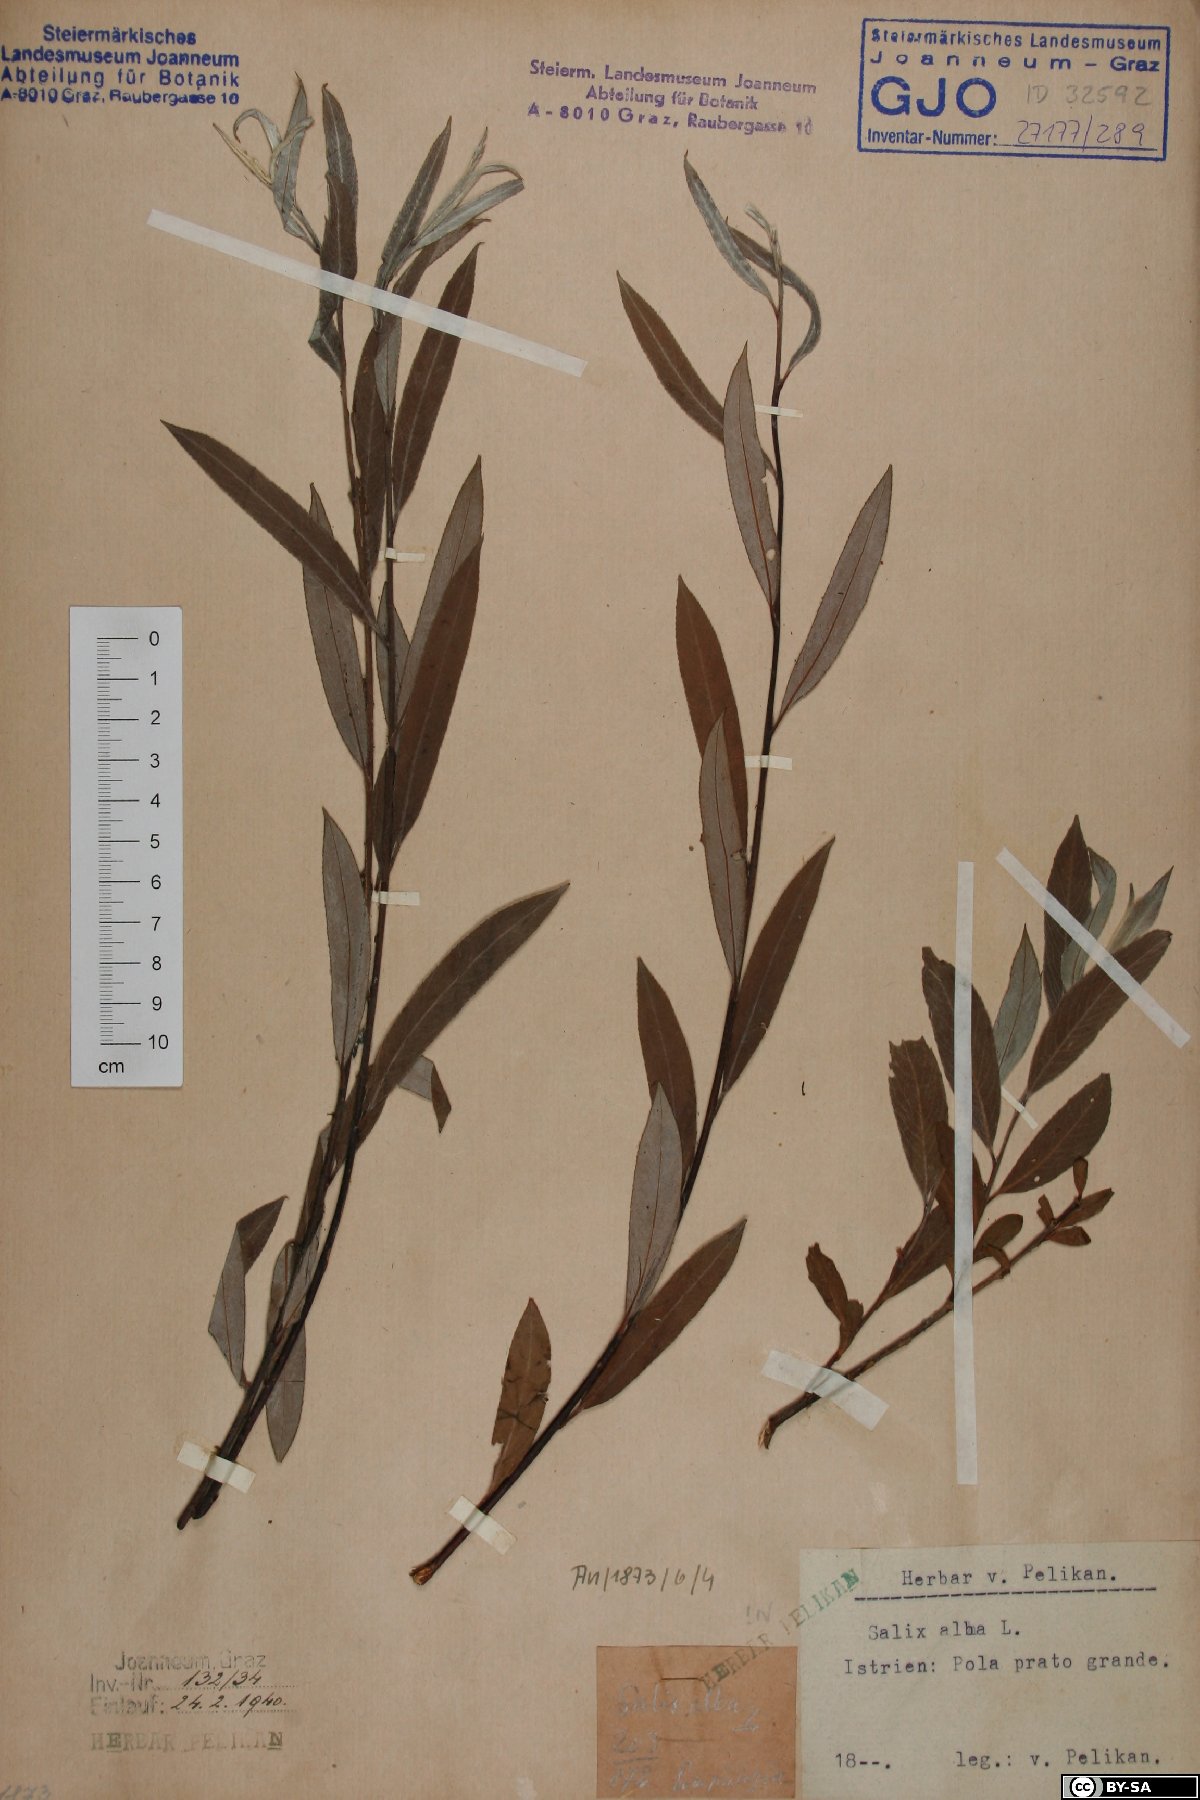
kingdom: Plantae
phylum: Tracheophyta
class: Magnoliopsida
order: Malpighiales
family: Salicaceae
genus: Salix
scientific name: Salix alba
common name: White willow
